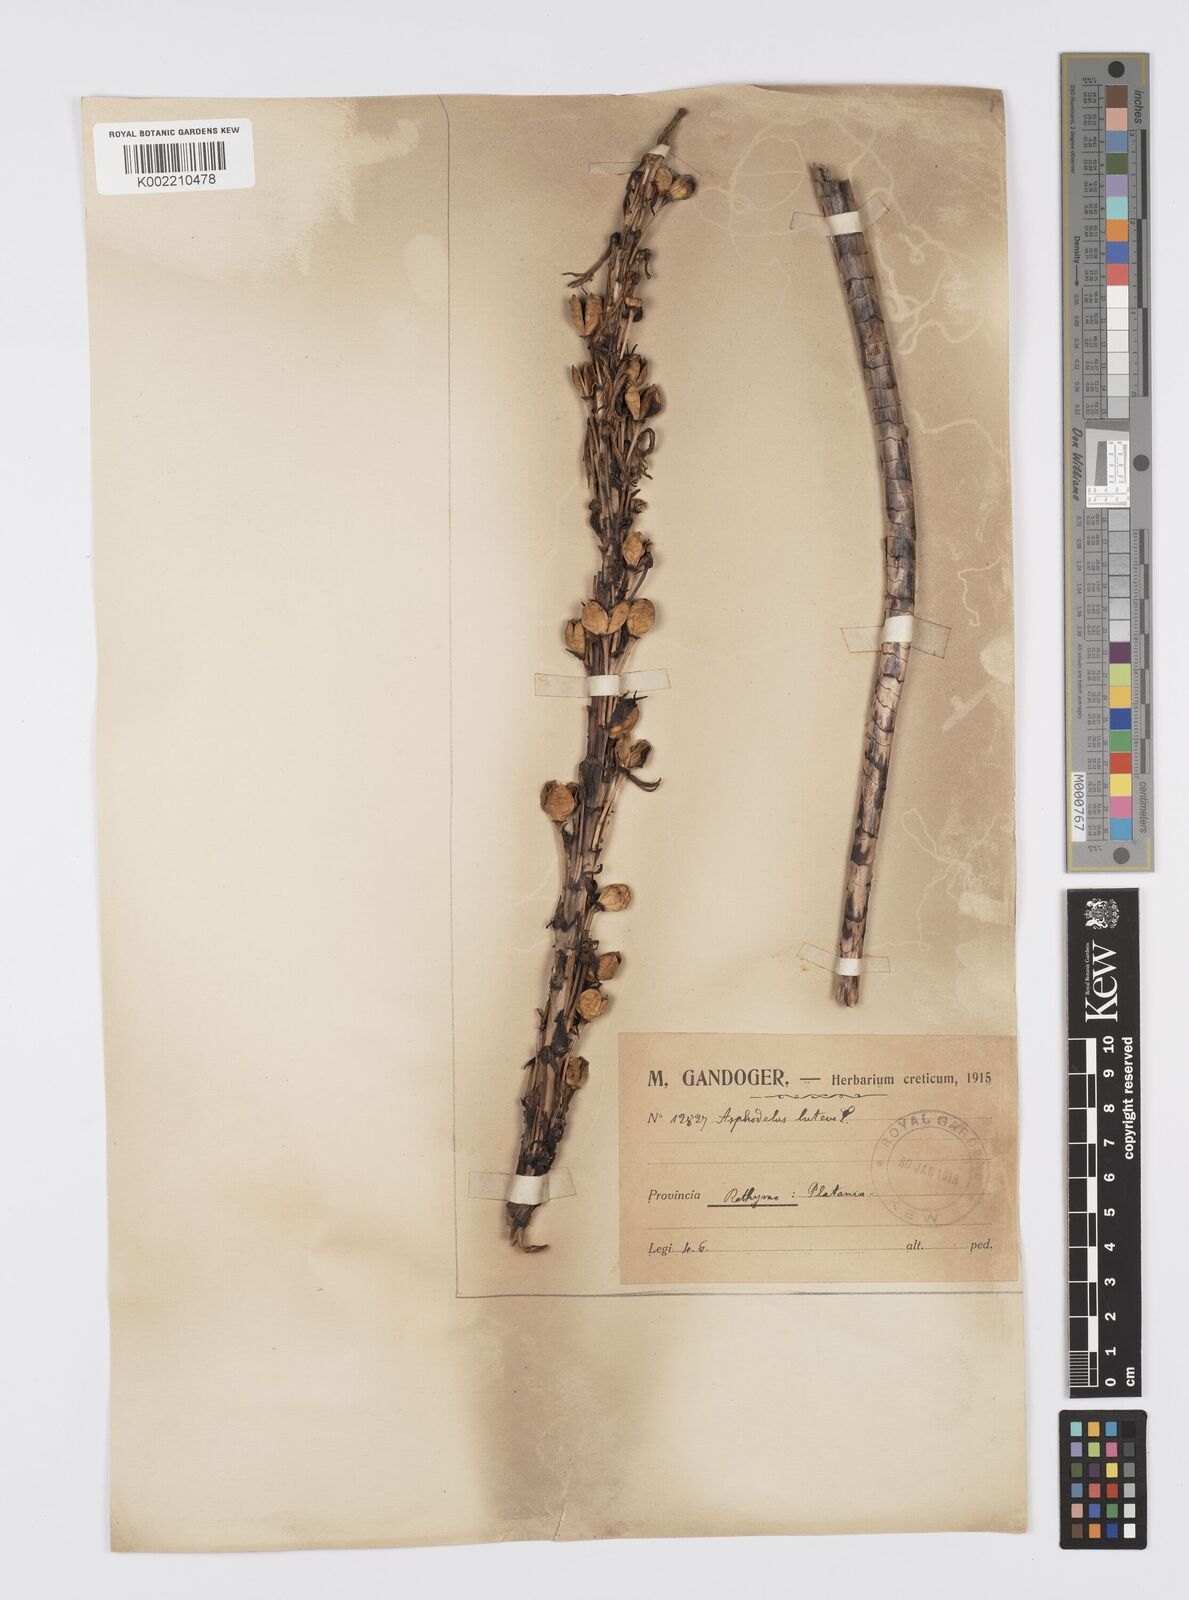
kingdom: Plantae
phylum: Tracheophyta
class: Liliopsida
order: Asparagales
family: Asphodelaceae
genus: Asphodeline
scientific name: Asphodeline lutea
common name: Yellow asphodel
